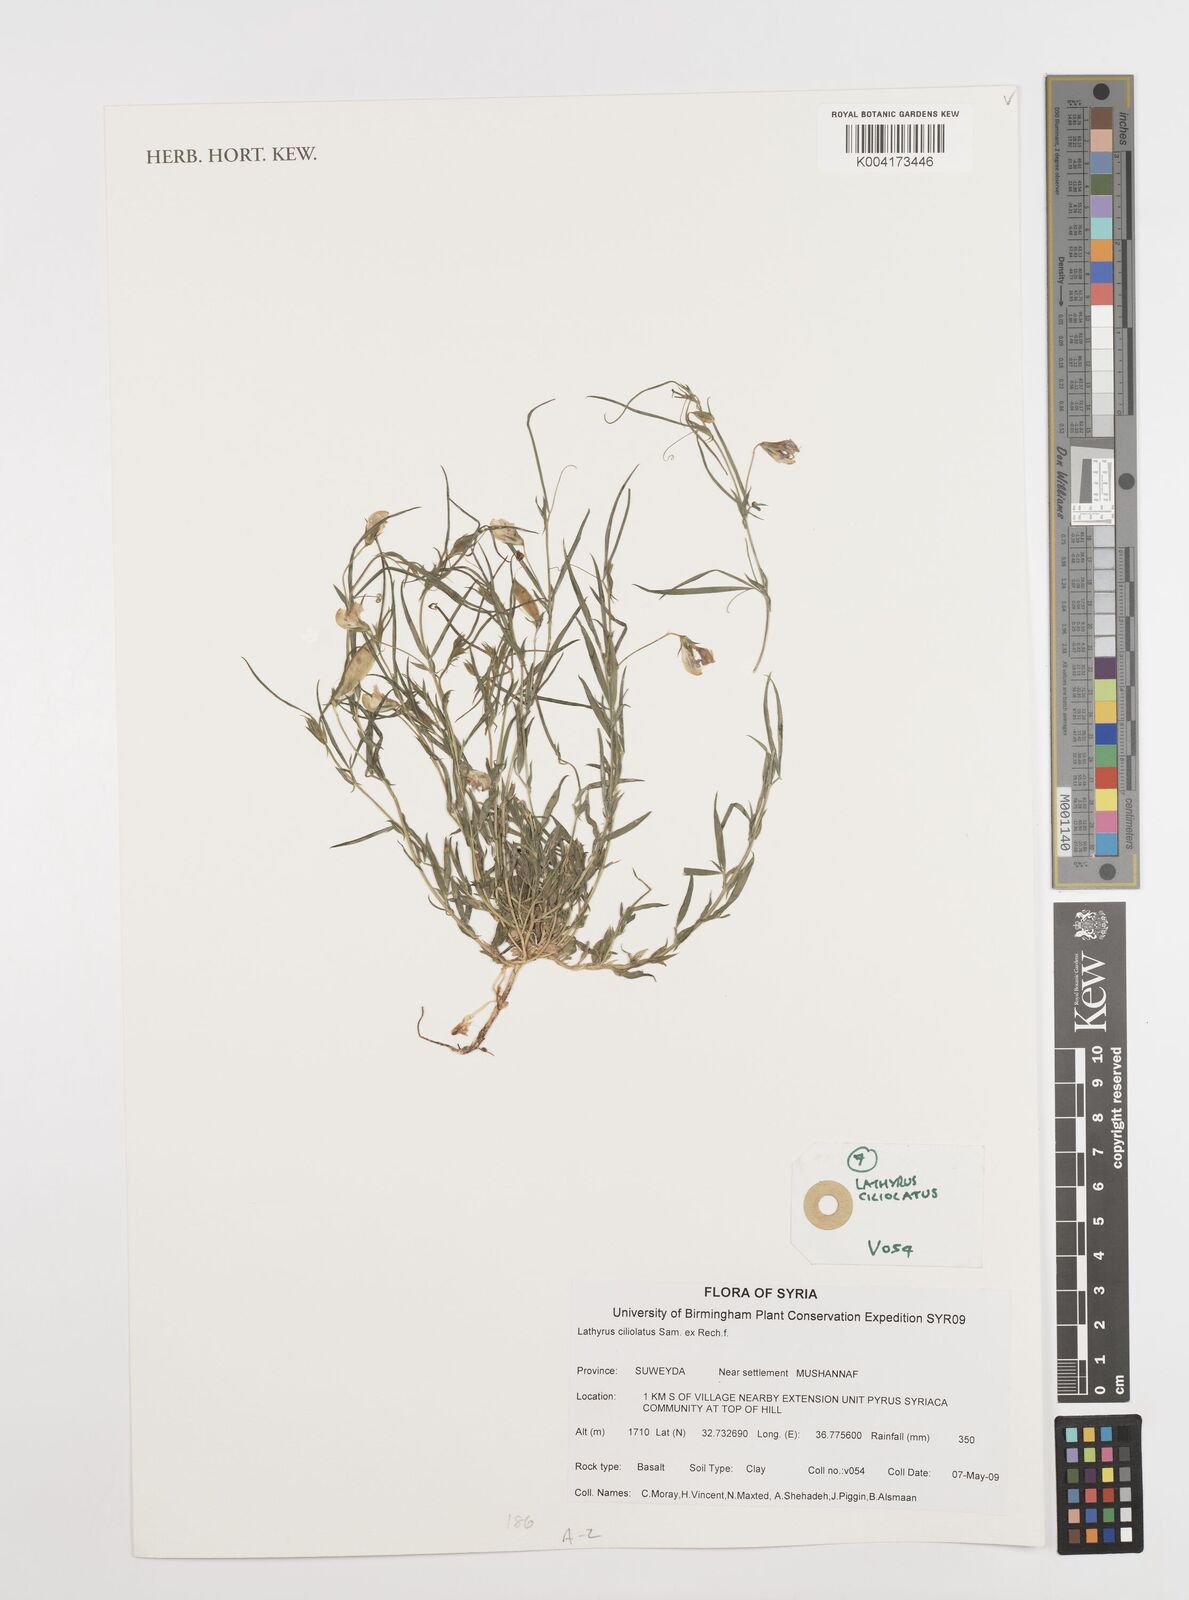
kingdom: Plantae
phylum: Tracheophyta
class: Magnoliopsida
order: Fabales
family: Fabaceae
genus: Lathyrus
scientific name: Lathyrus ciliolatus
